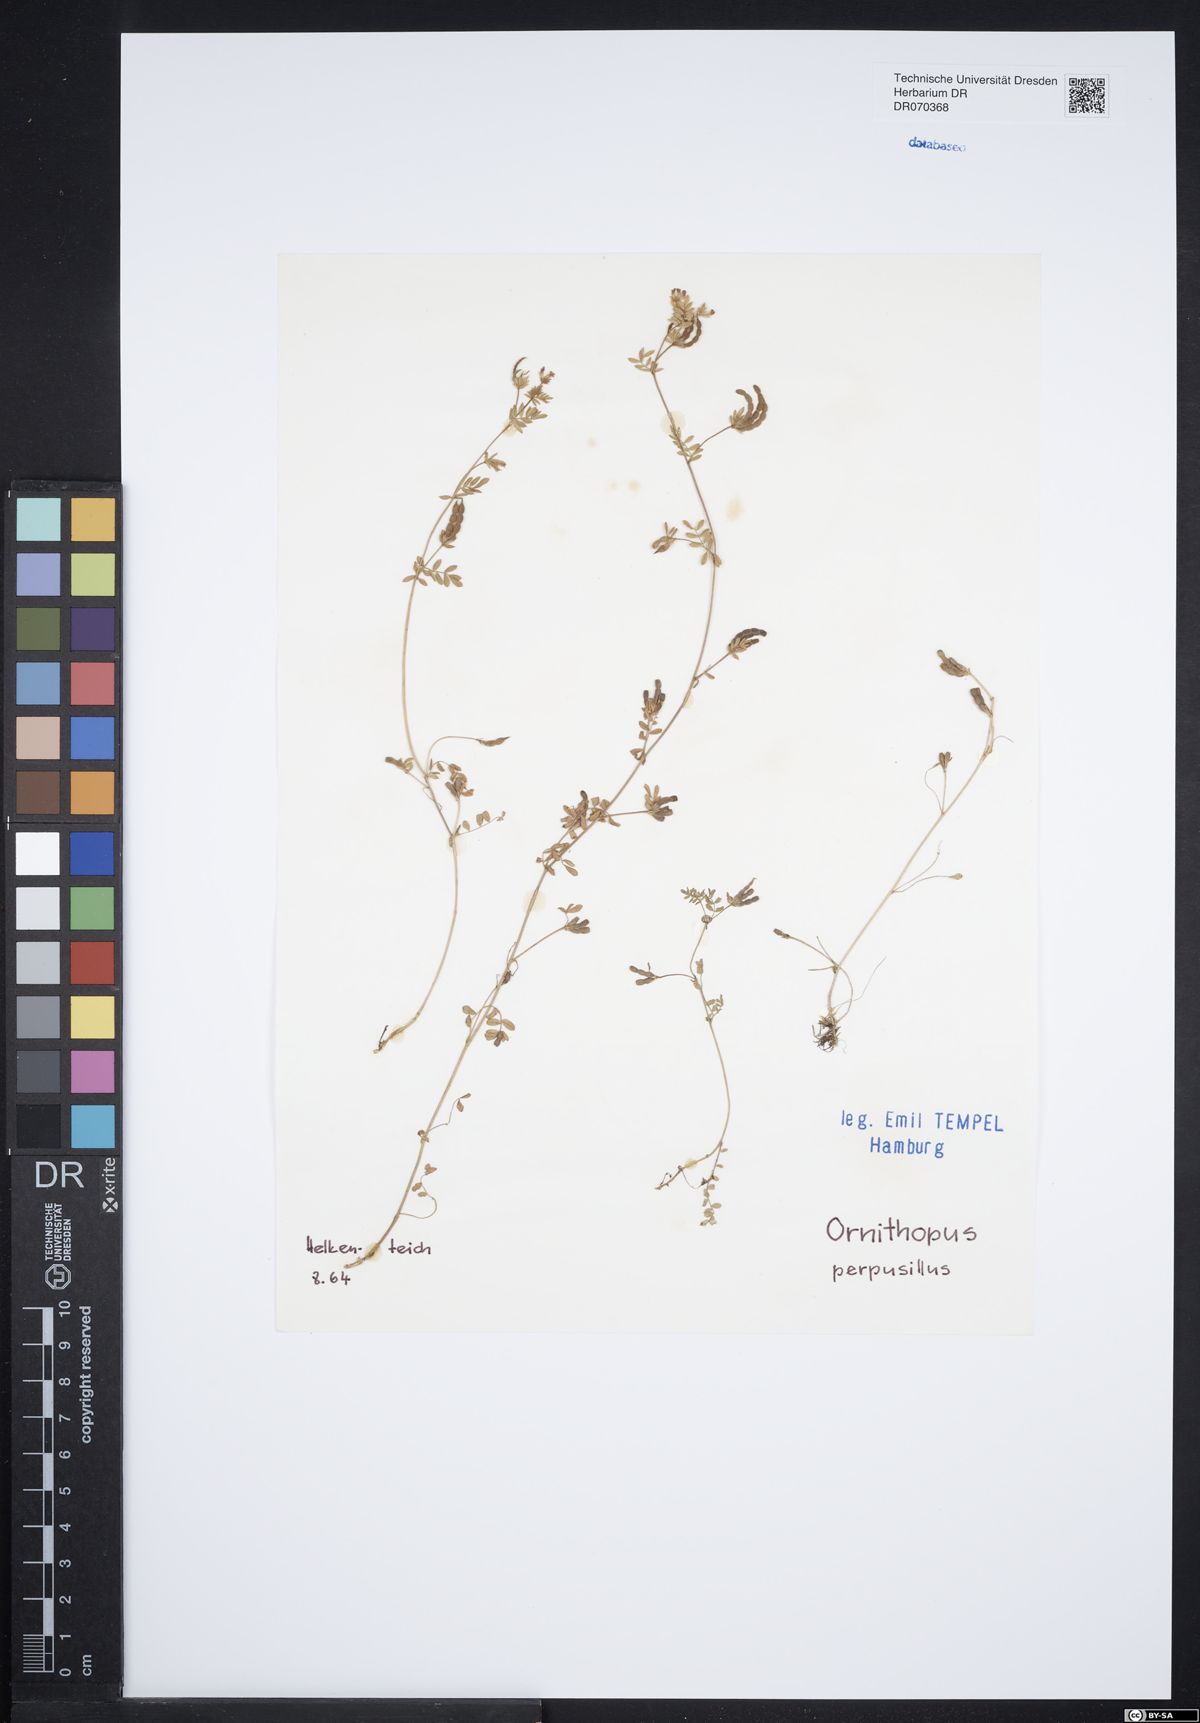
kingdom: Plantae
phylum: Tracheophyta
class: Magnoliopsida
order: Fabales
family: Fabaceae
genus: Ornithopus
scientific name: Ornithopus perpusillus
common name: Bird's-foot
